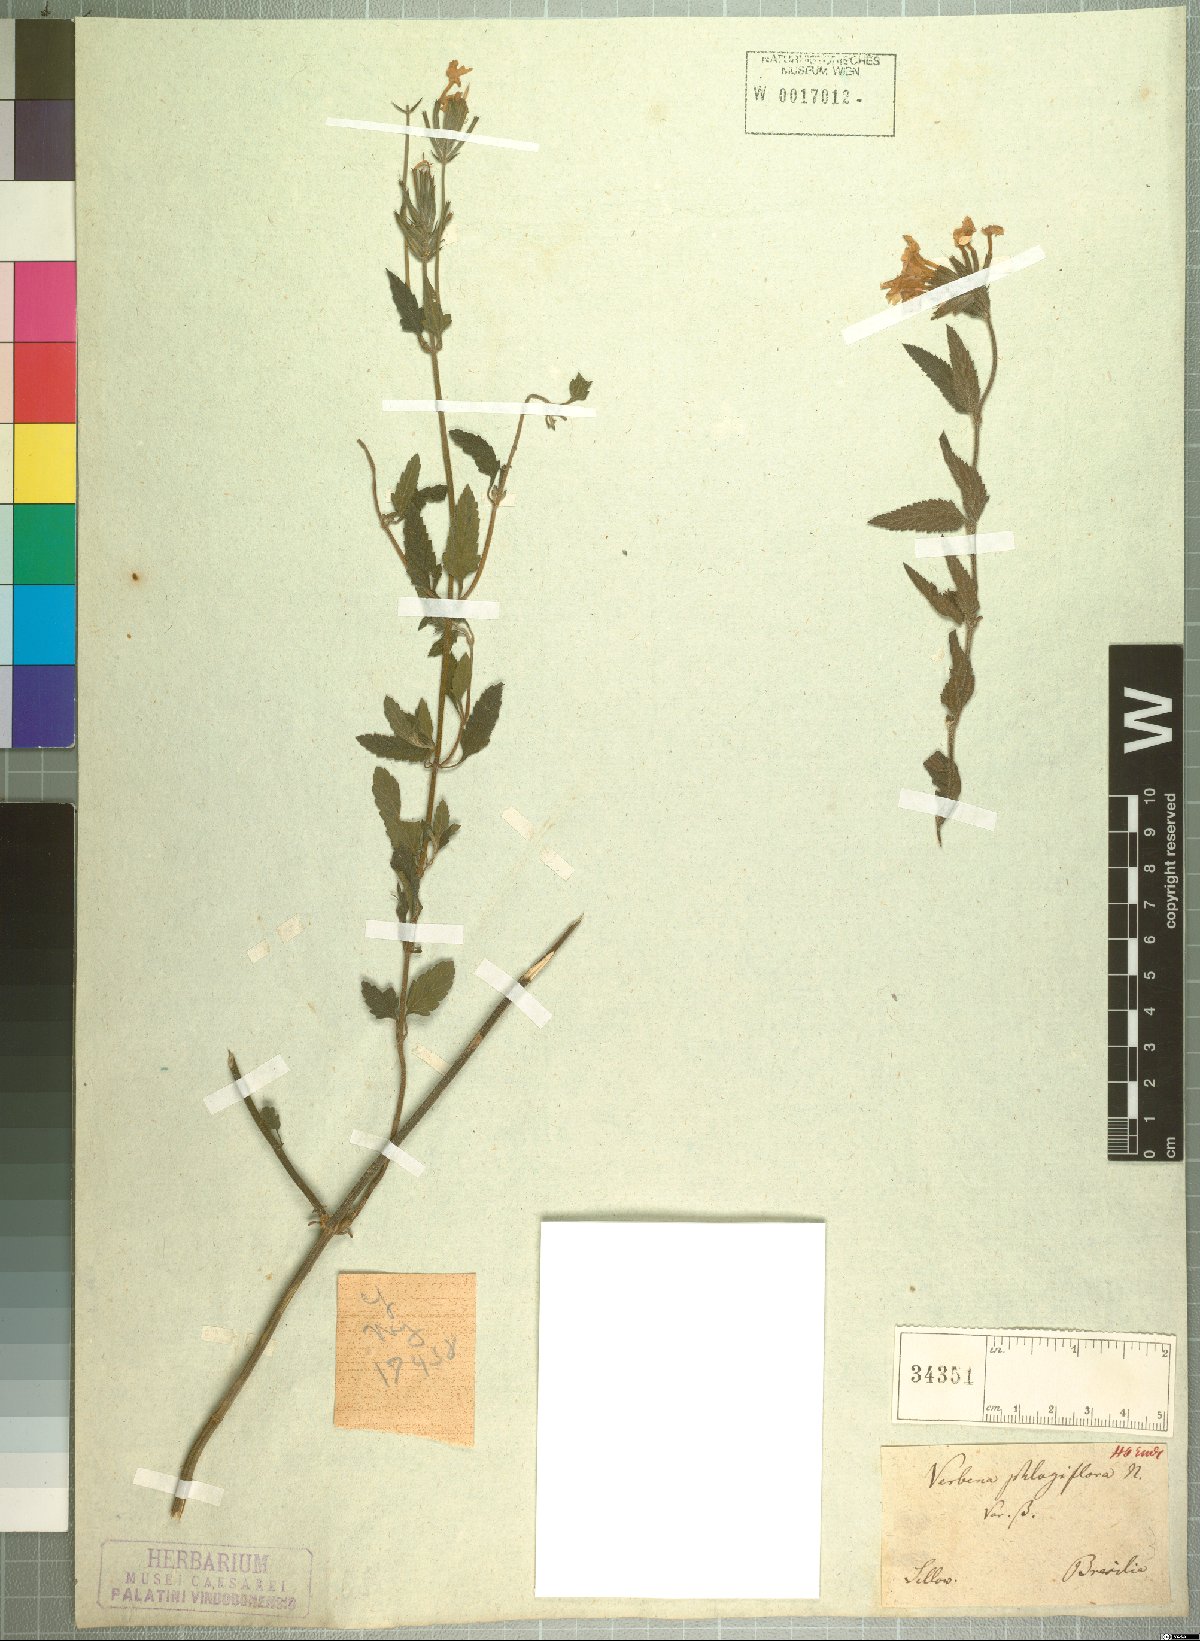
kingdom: Plantae
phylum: Tracheophyta
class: Magnoliopsida
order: Lamiales
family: Verbenaceae
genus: Verbena
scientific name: Verbena phlogiflora
